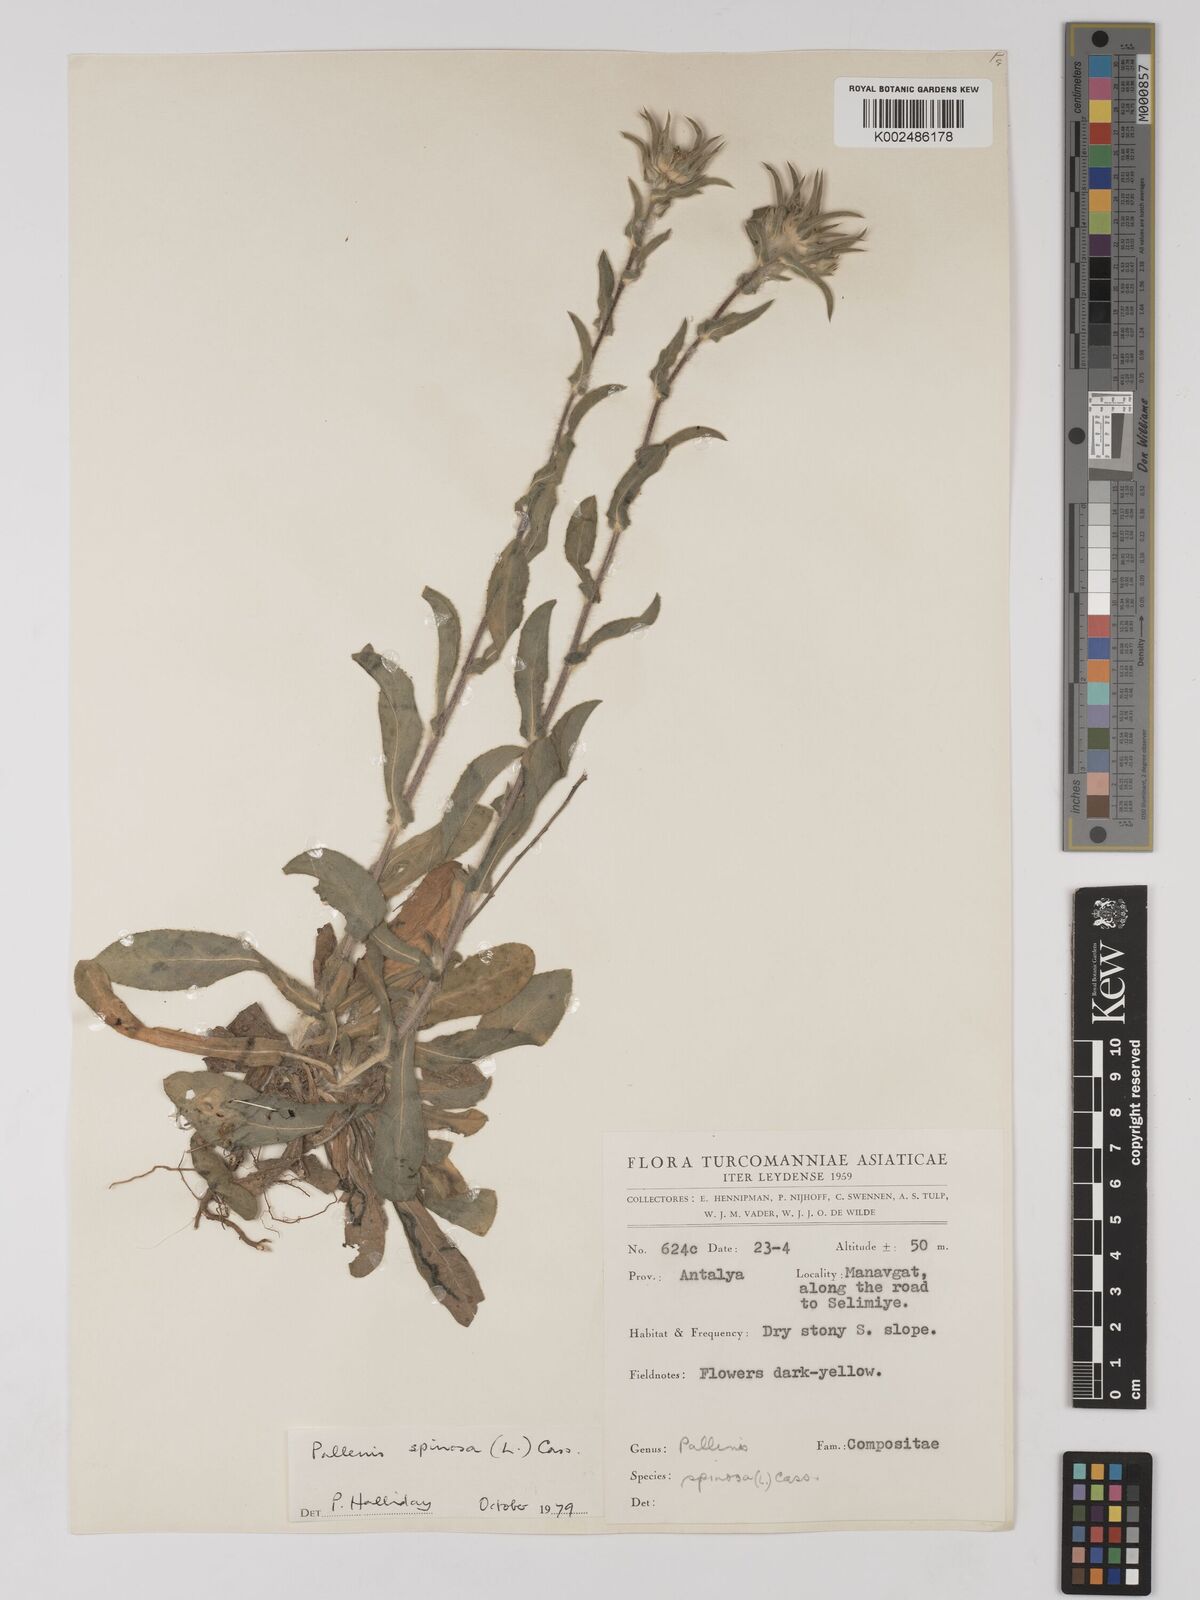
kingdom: Plantae
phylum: Tracheophyta
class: Magnoliopsida
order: Asterales
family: Asteraceae
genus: Pallenis
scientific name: Pallenis spinosa
